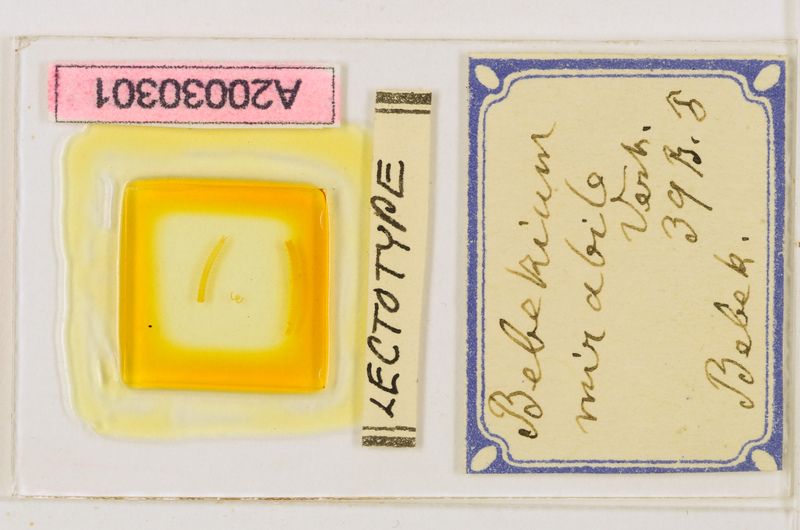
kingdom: Animalia
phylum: Arthropoda
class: Chilopoda
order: Geophilomorpha
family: Geophilidae
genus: Bebekium
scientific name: Bebekium mirabile
